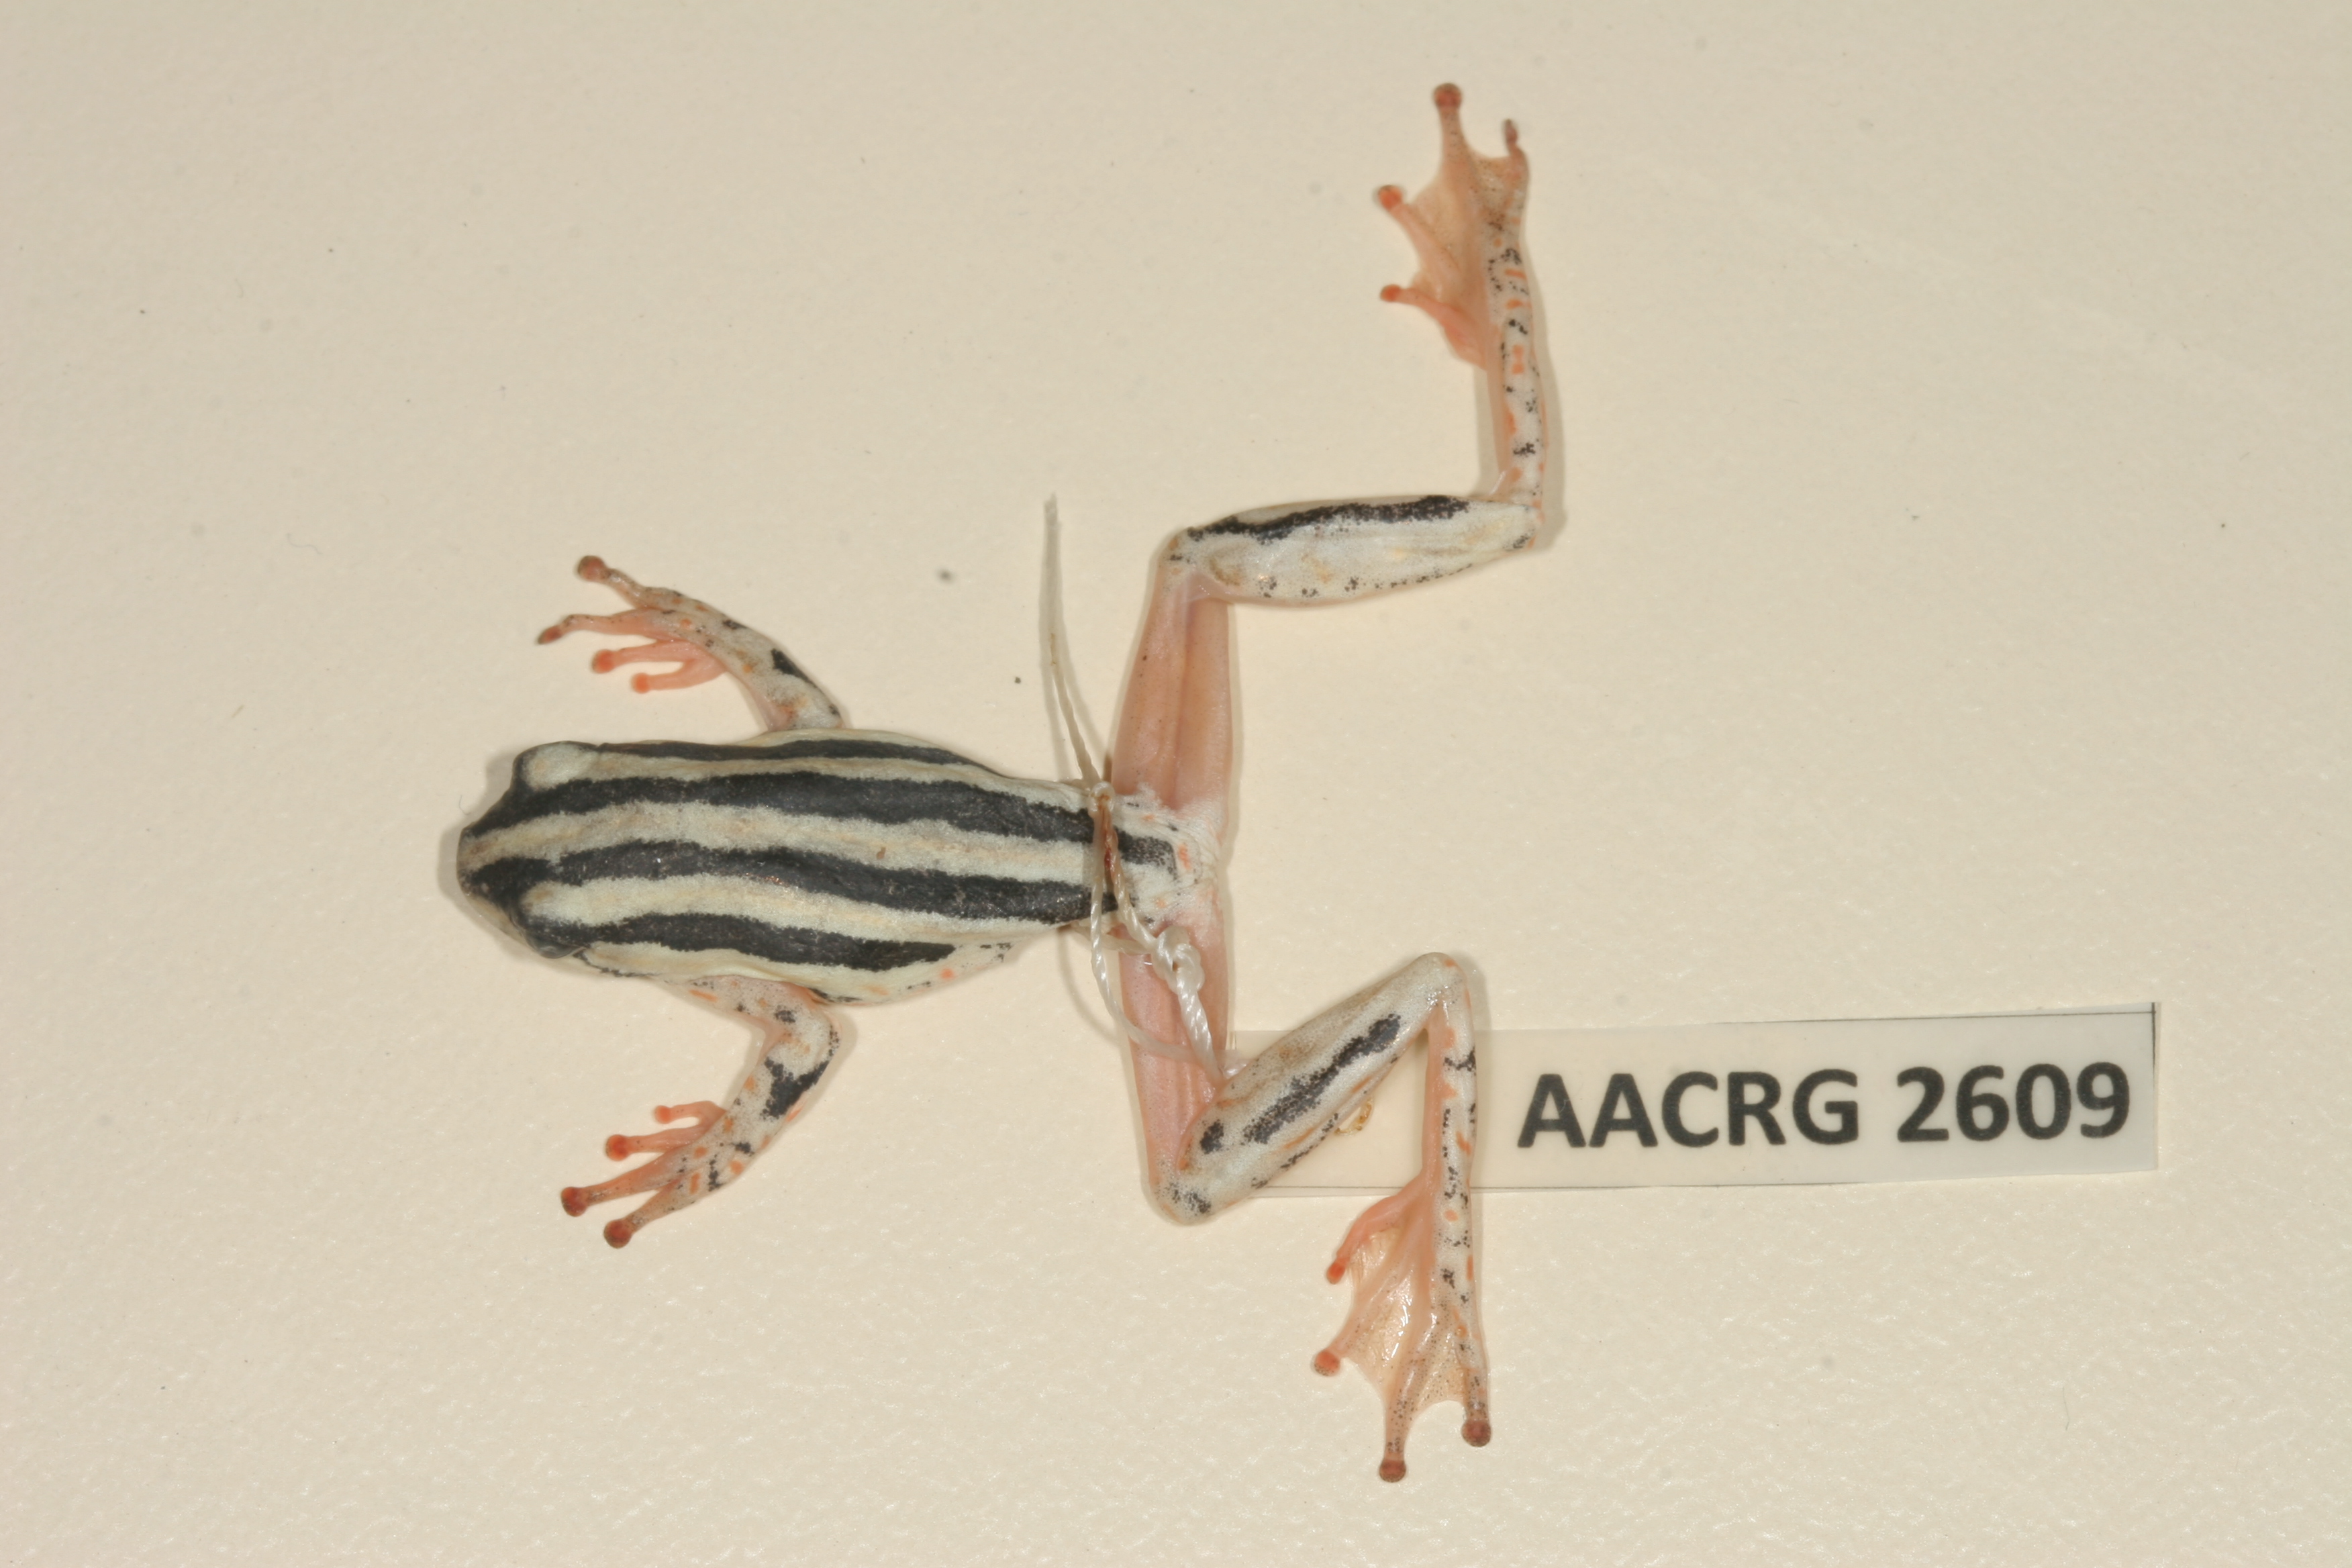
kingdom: Animalia
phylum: Chordata
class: Amphibia
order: Anura
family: Hyperoliidae
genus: Hyperolius
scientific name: Hyperolius marmoratus
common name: Painted reed frog
